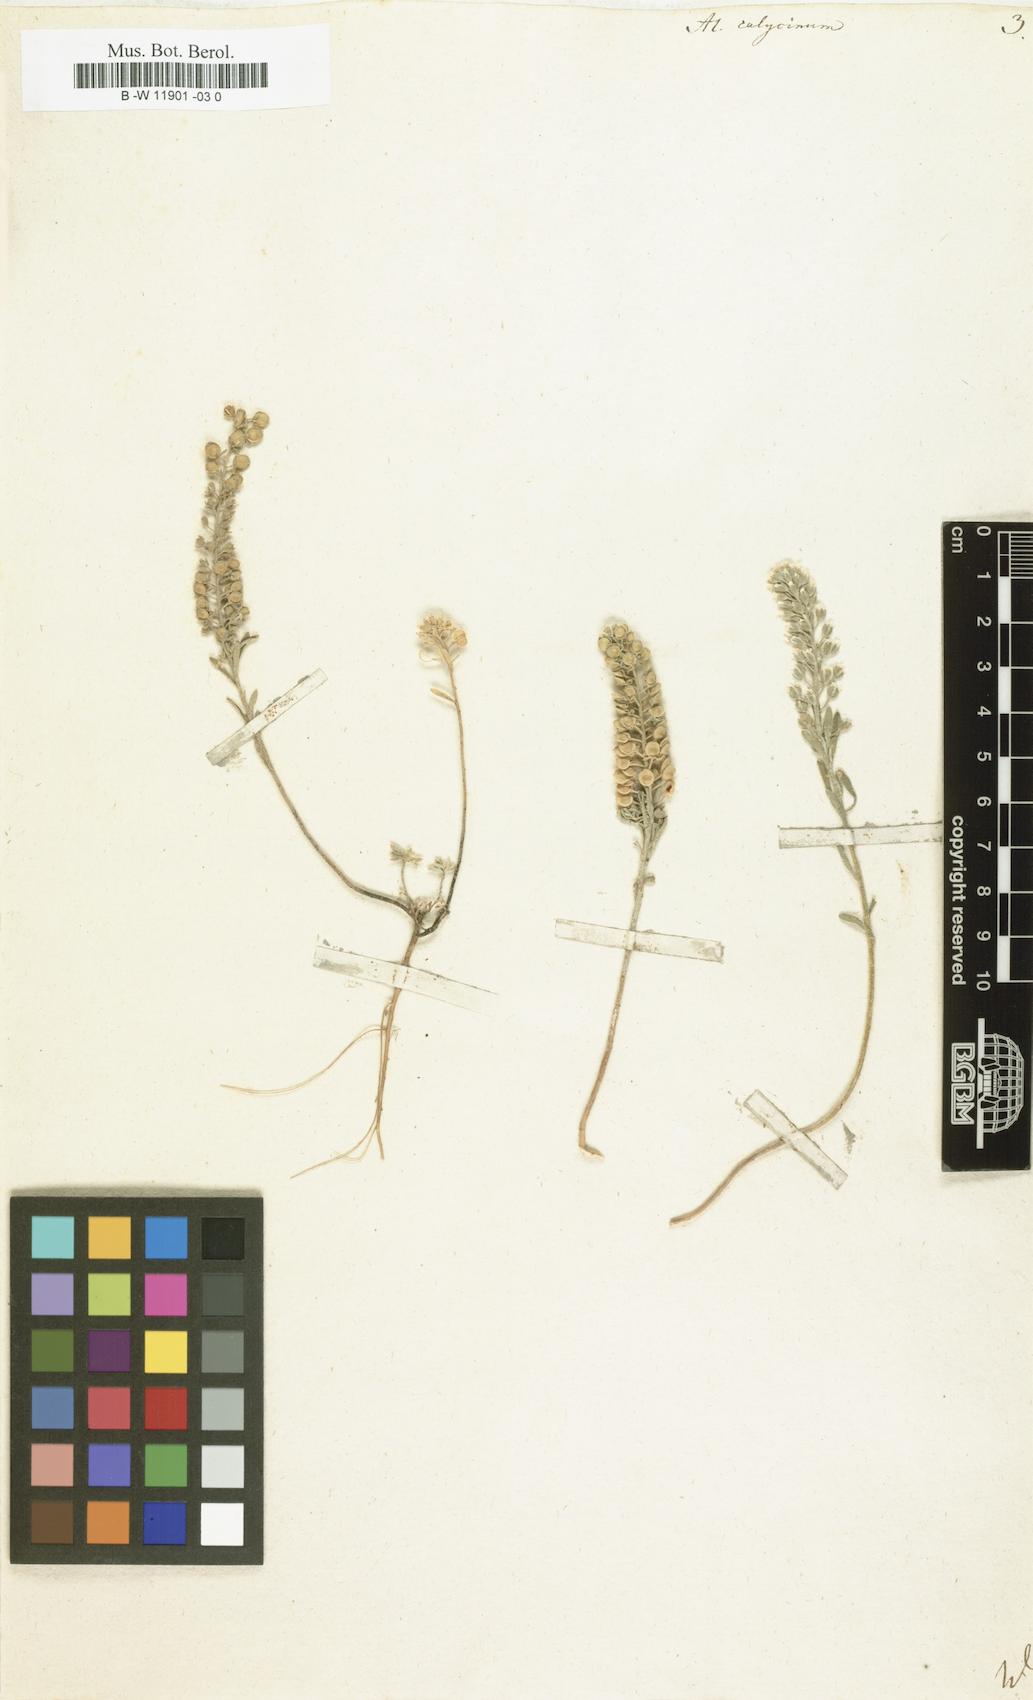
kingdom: Plantae
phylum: Tracheophyta
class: Magnoliopsida
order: Brassicales
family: Brassicaceae
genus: Alyssum
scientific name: Alyssum alyssoides
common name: Small alison
